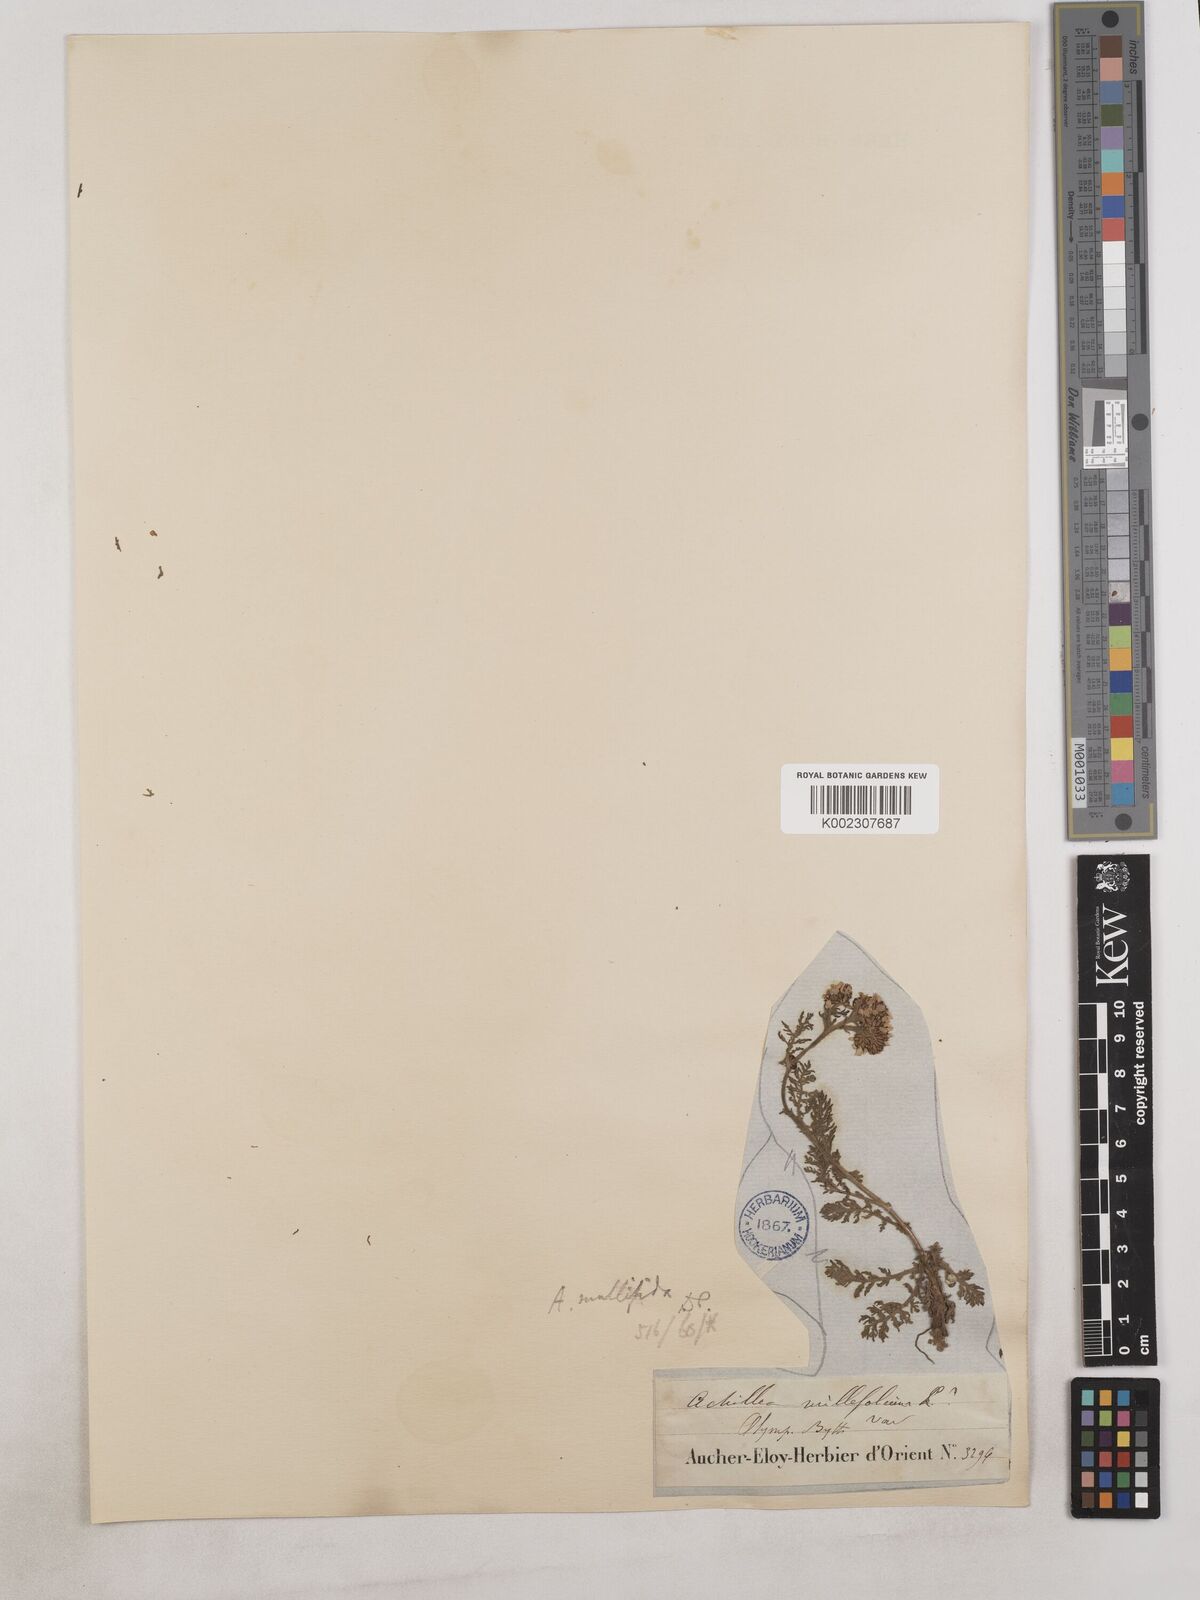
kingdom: Plantae
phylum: Tracheophyta
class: Magnoliopsida
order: Asterales
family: Asteraceae
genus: Achillea
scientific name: Achillea multifida
